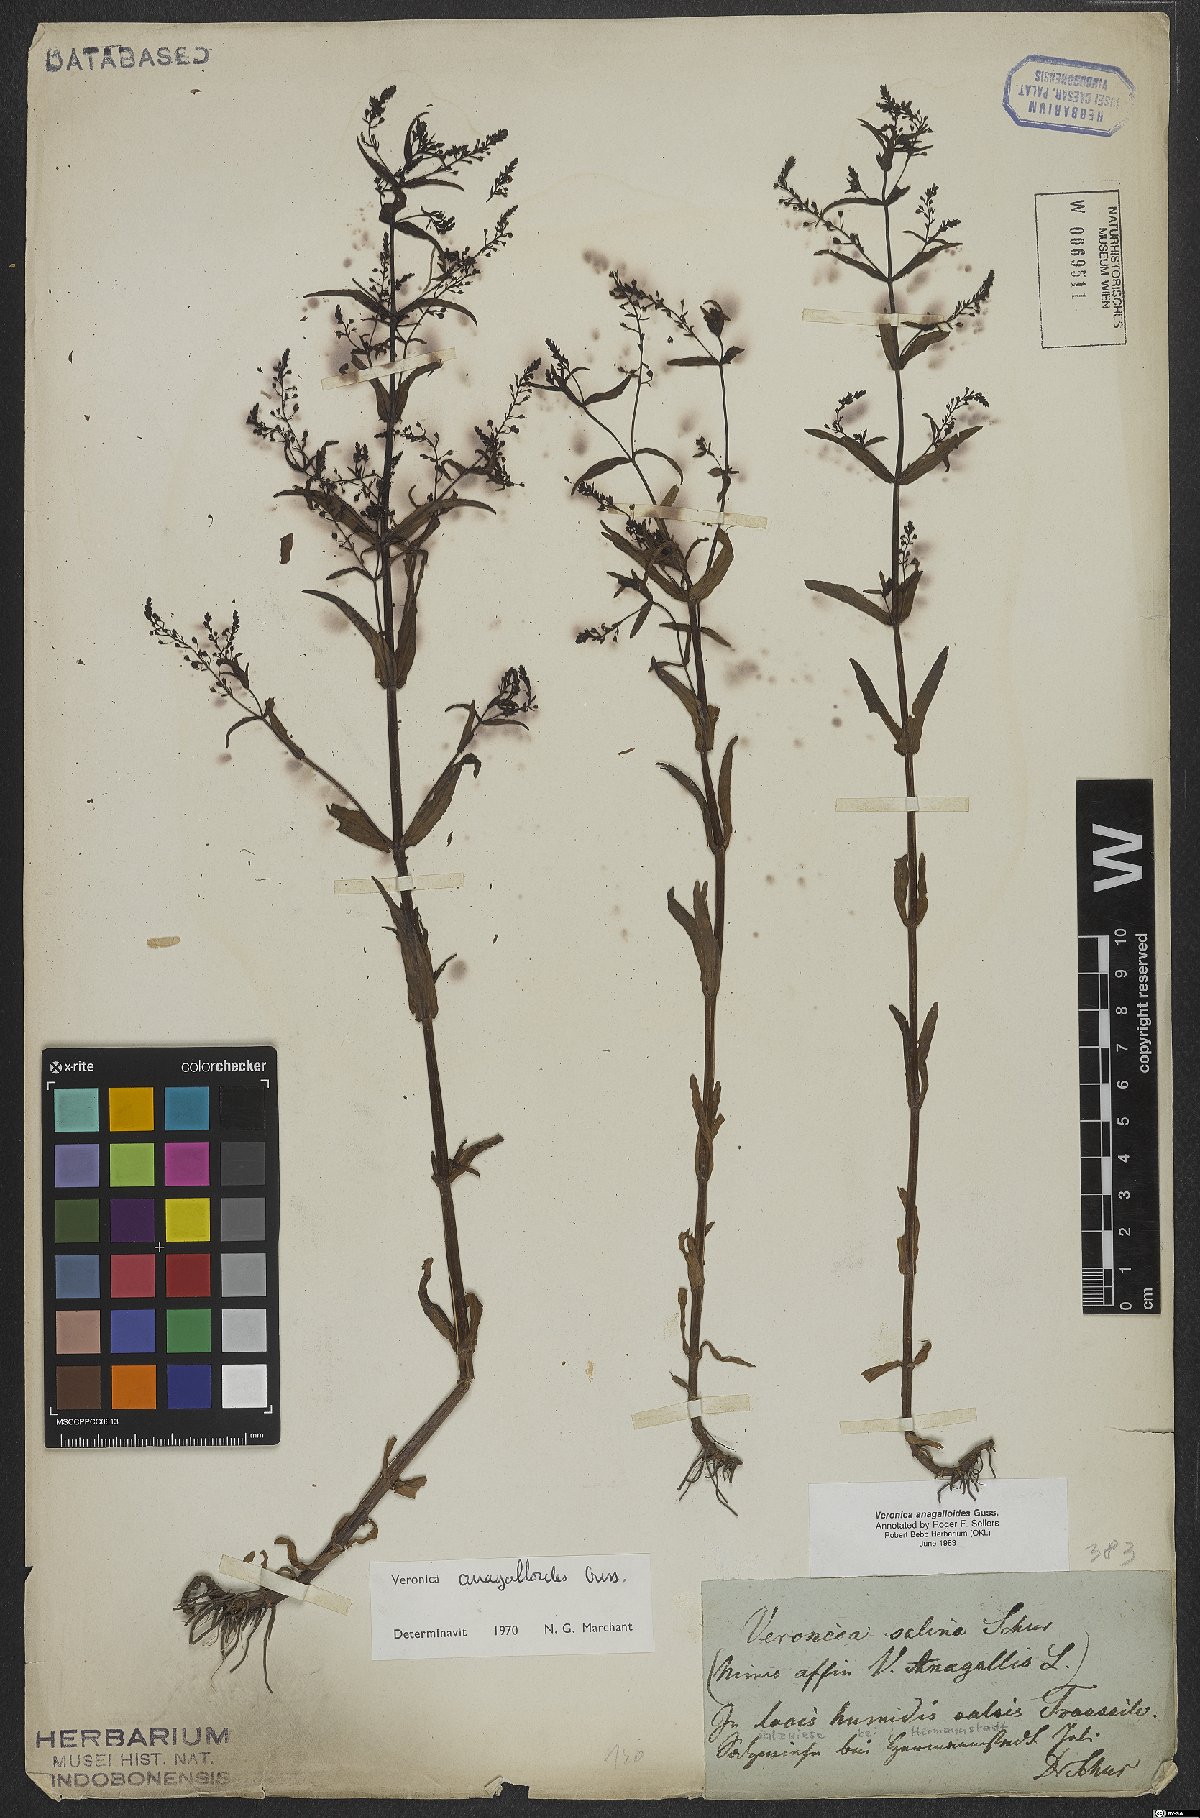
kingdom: Plantae
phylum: Tracheophyta
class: Magnoliopsida
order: Lamiales
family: Plantaginaceae
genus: Veronica
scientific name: Veronica anagalloides
